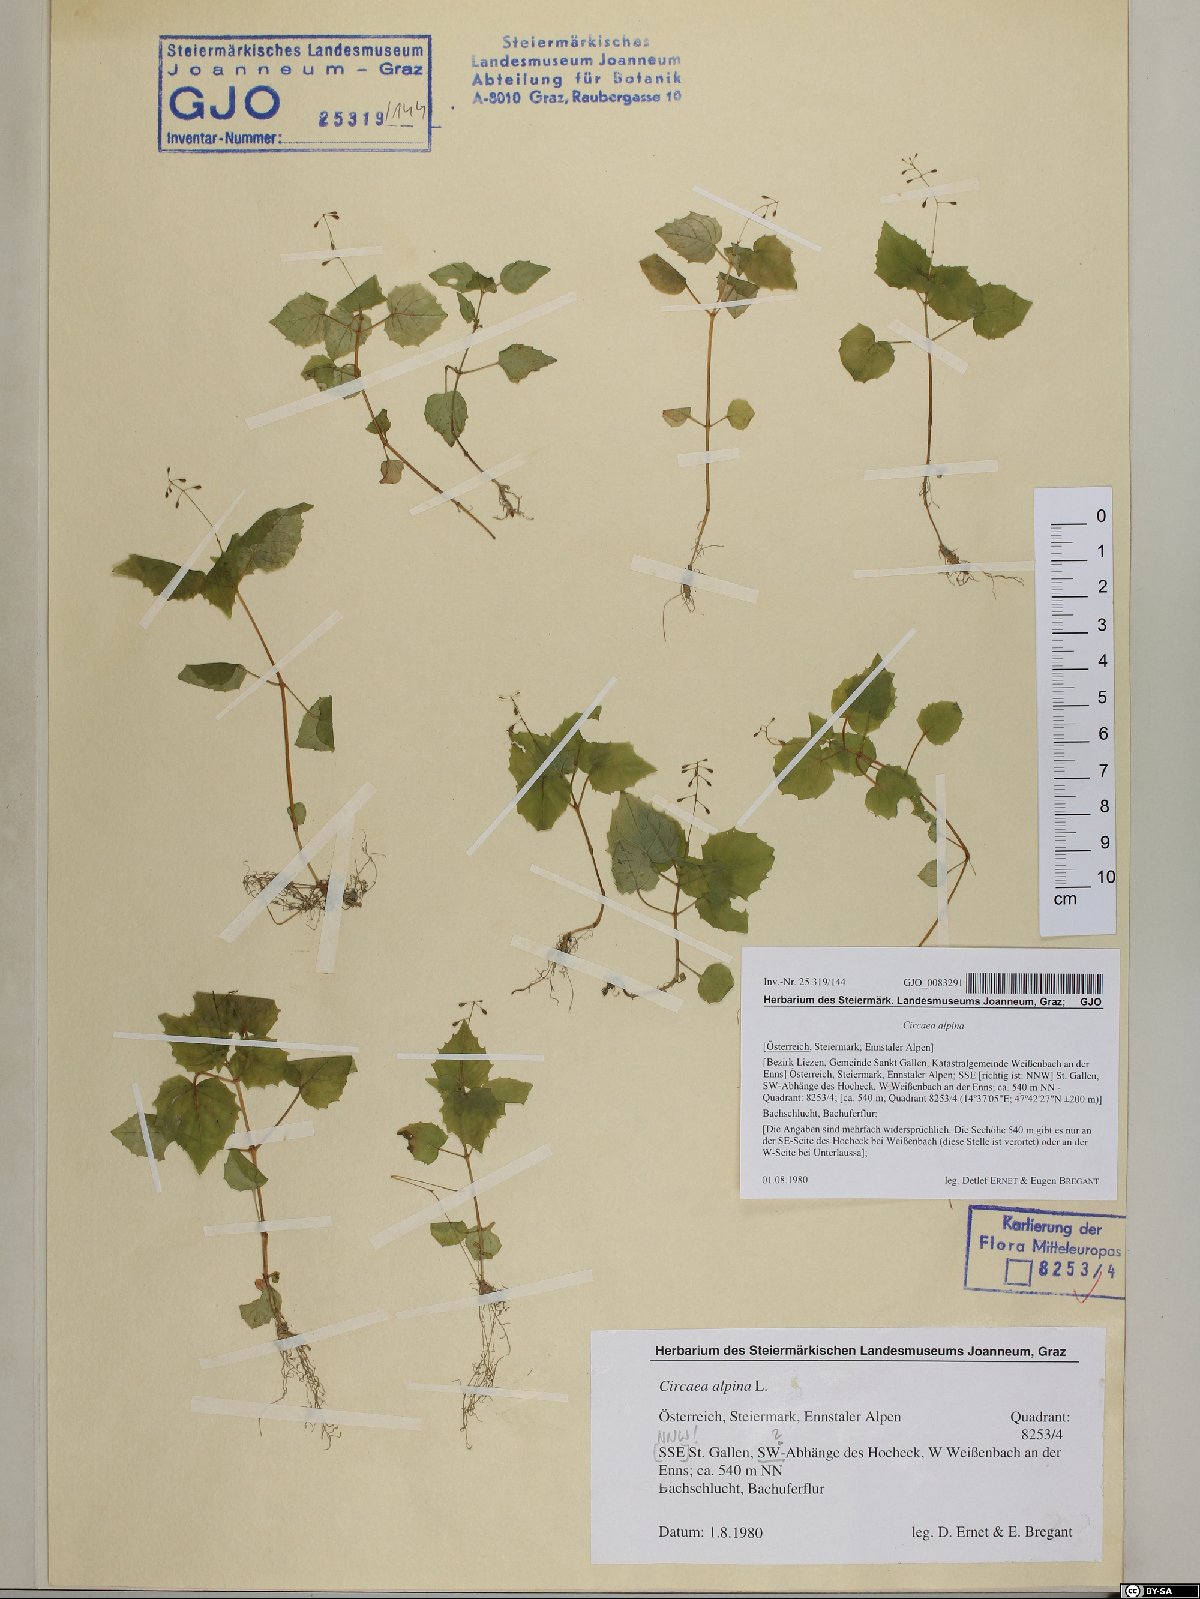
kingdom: Plantae
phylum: Tracheophyta
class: Magnoliopsida
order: Myrtales
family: Onagraceae
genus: Circaea
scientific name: Circaea alpina
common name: Alpine enchanter's-nightshade
